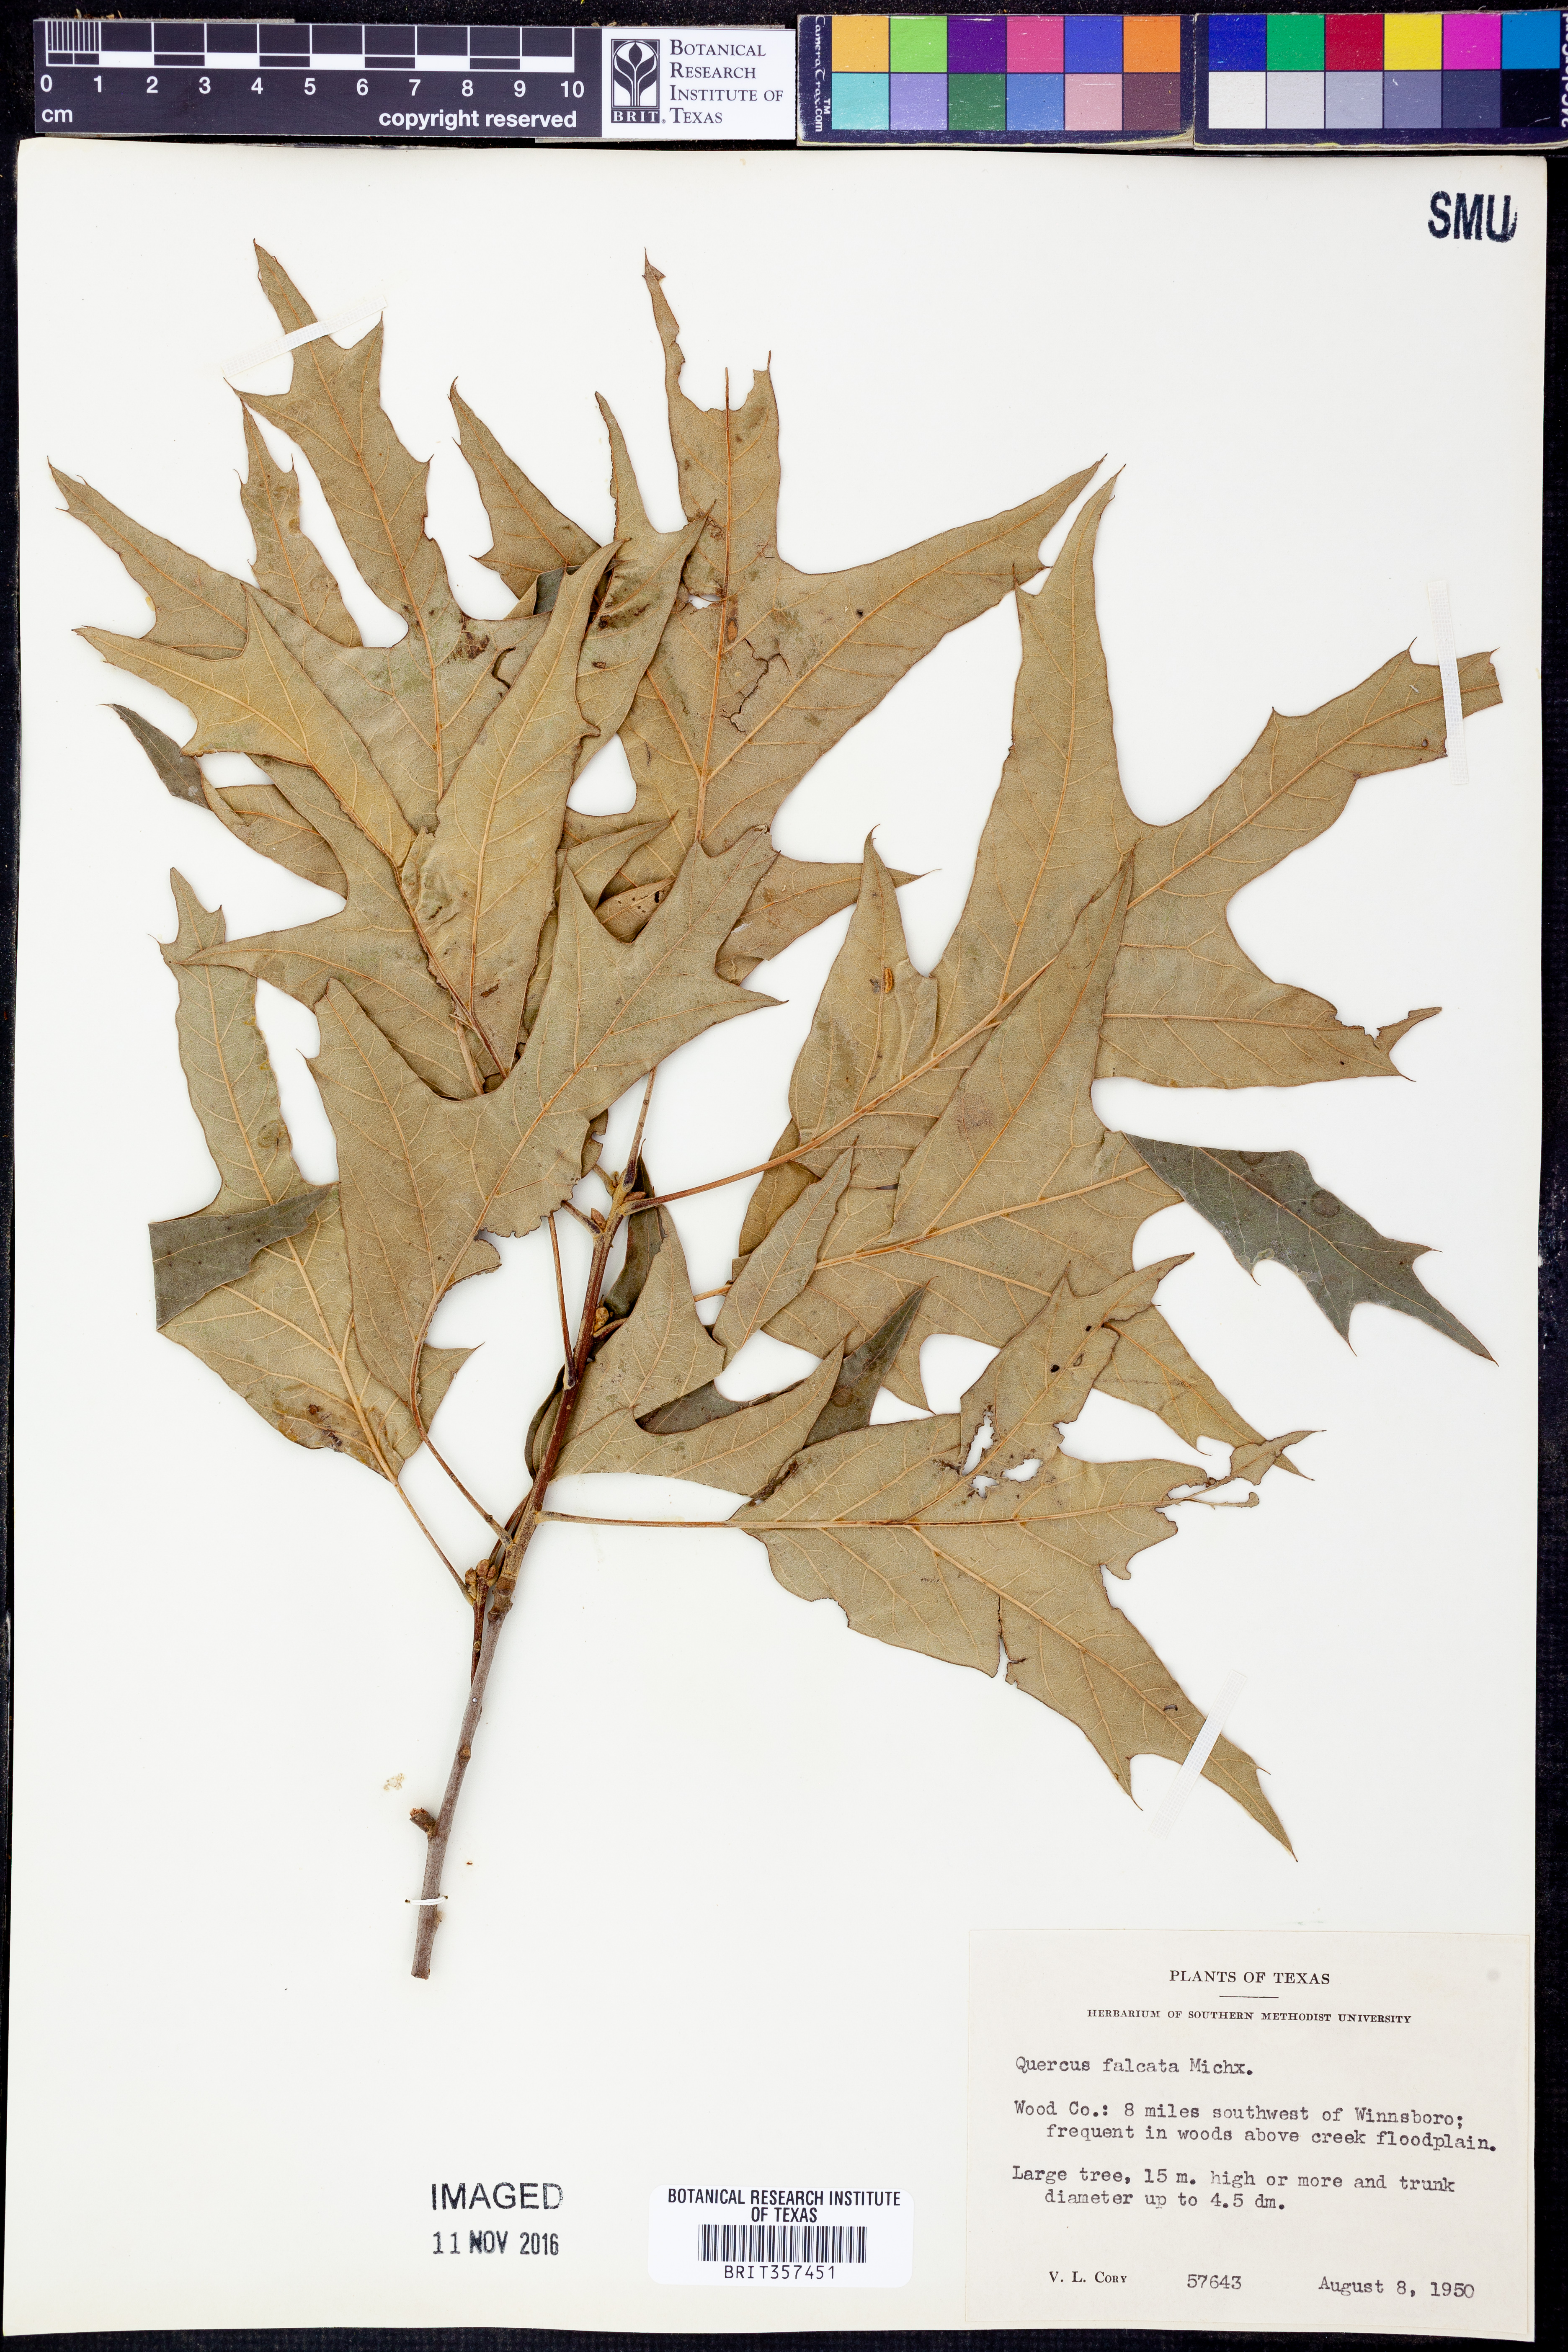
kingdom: Plantae
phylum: Tracheophyta
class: Magnoliopsida
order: Fagales
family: Fagaceae
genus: Quercus
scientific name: Quercus falcata
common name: Southern red oak
